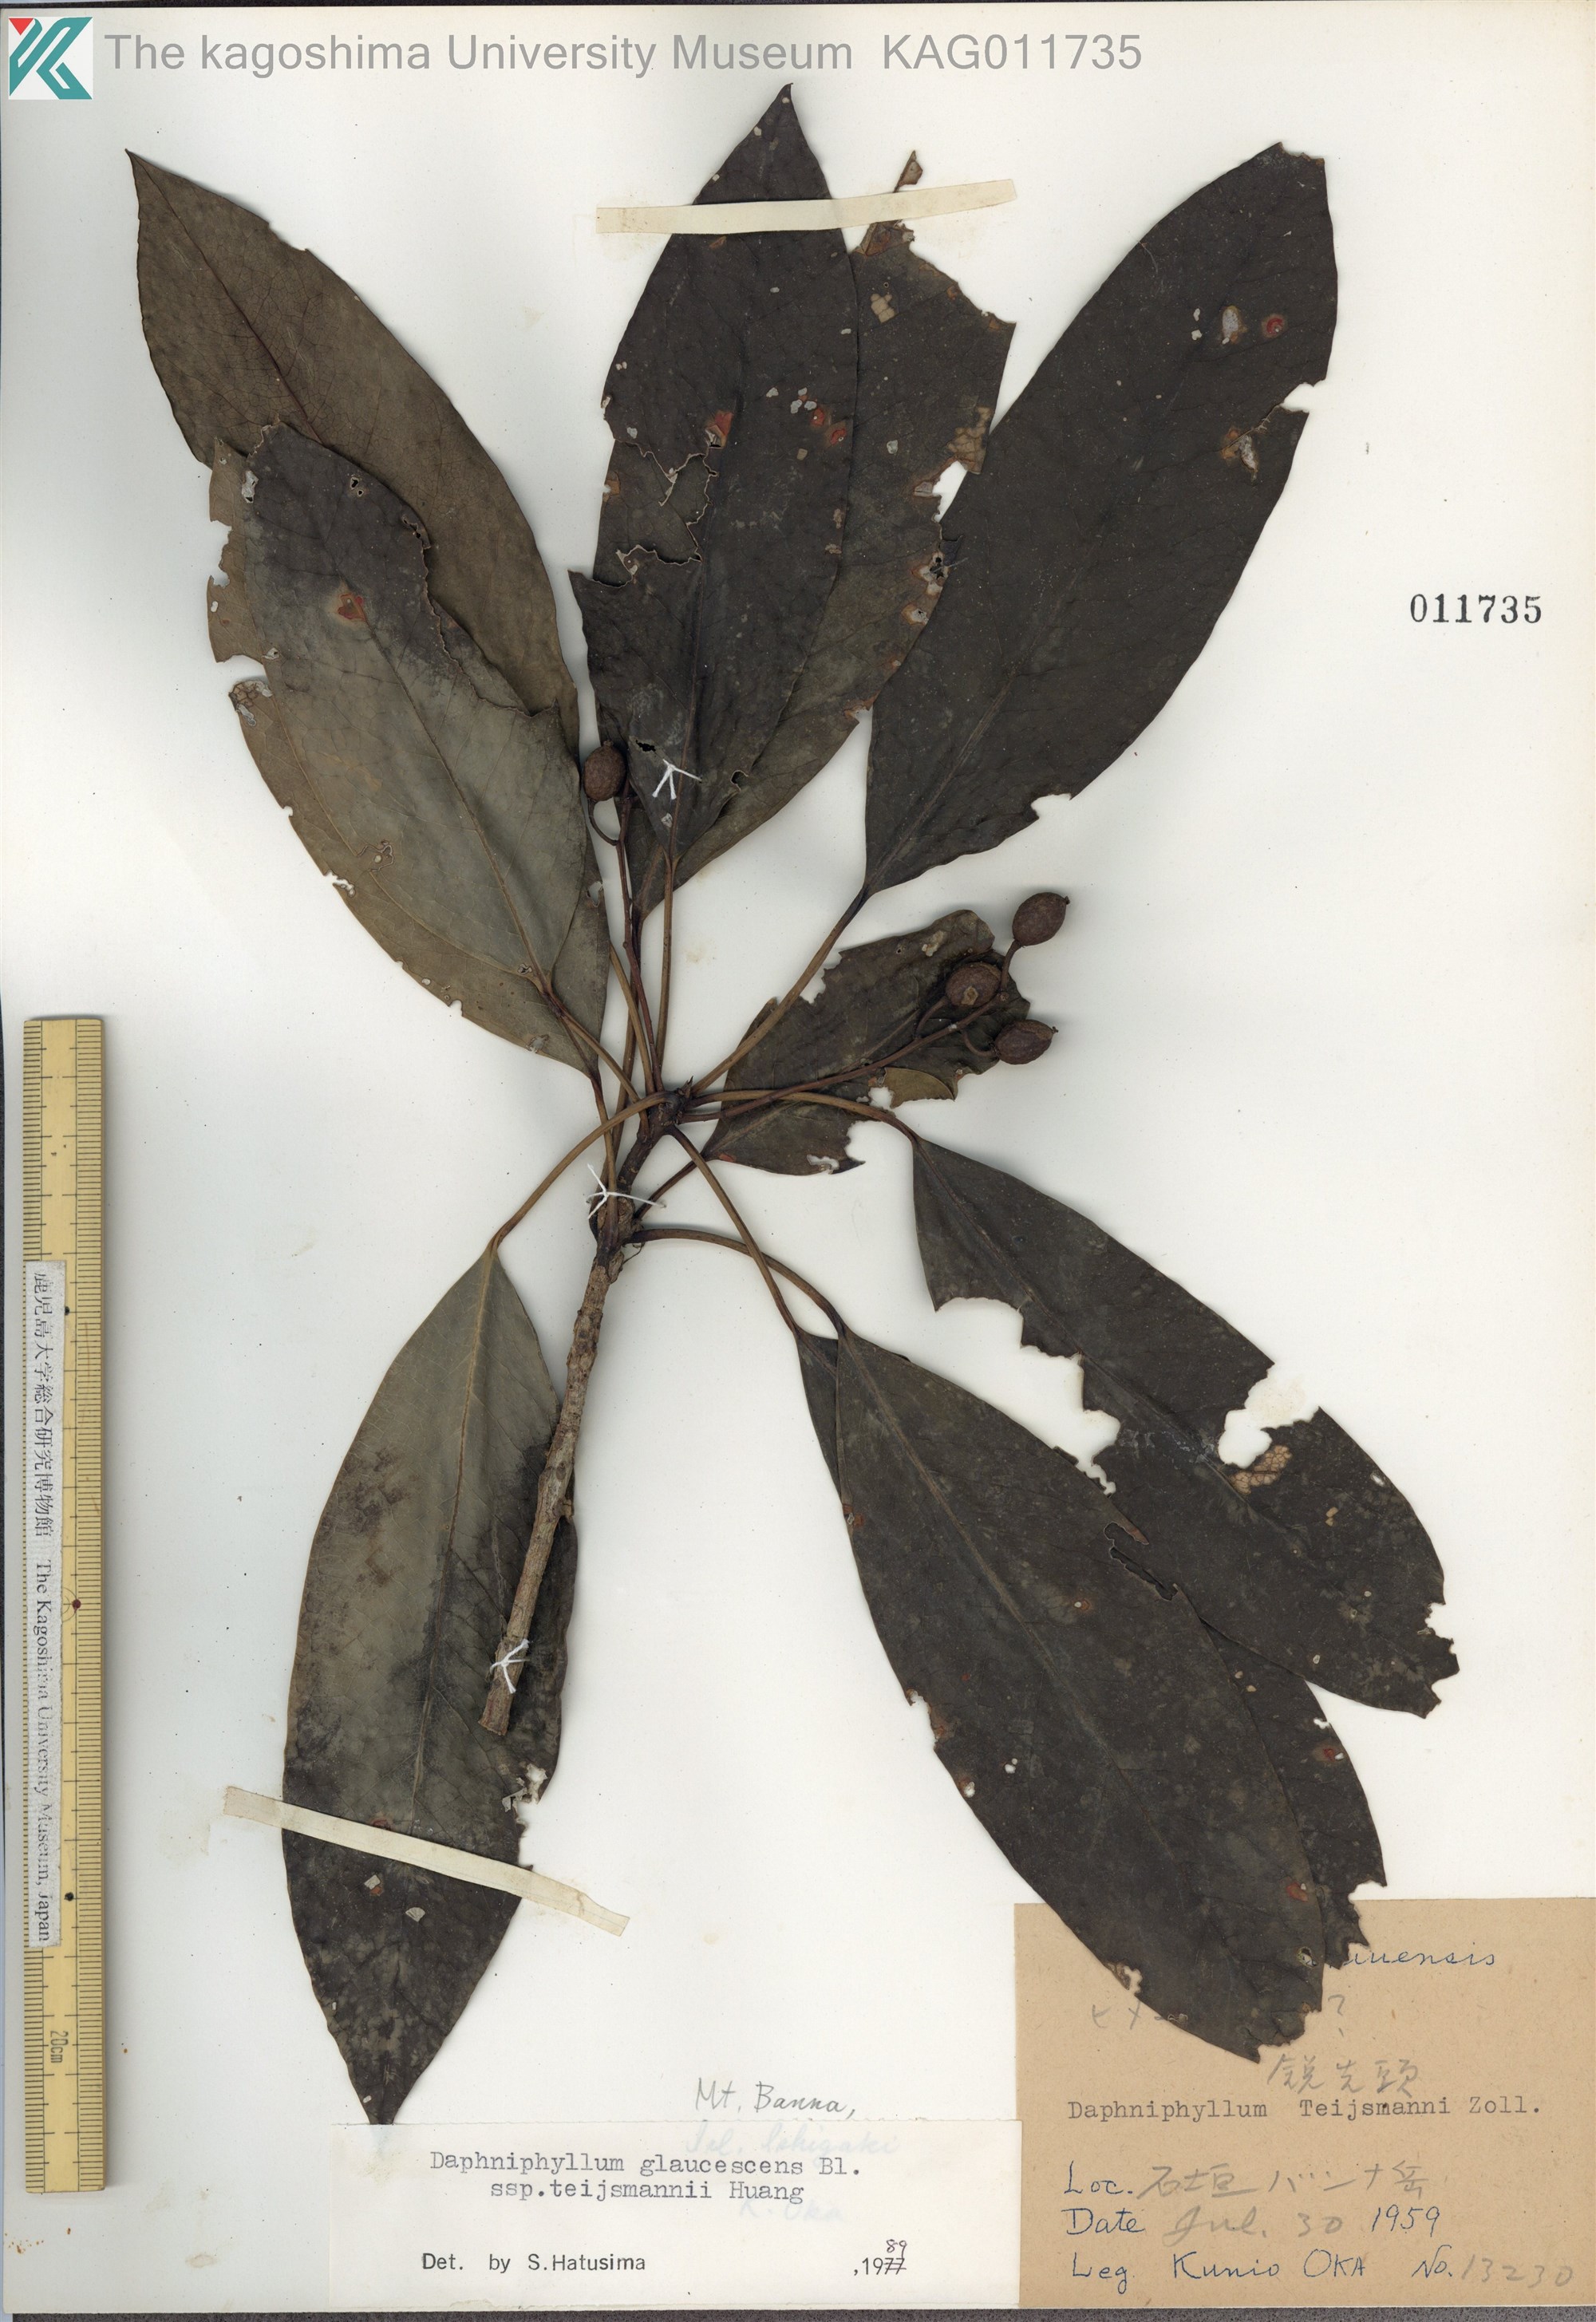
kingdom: Plantae
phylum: Tracheophyta
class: Magnoliopsida
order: Saxifragales
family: Daphniphyllaceae
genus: Daphniphyllum
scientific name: Daphniphyllum teijsmannii
